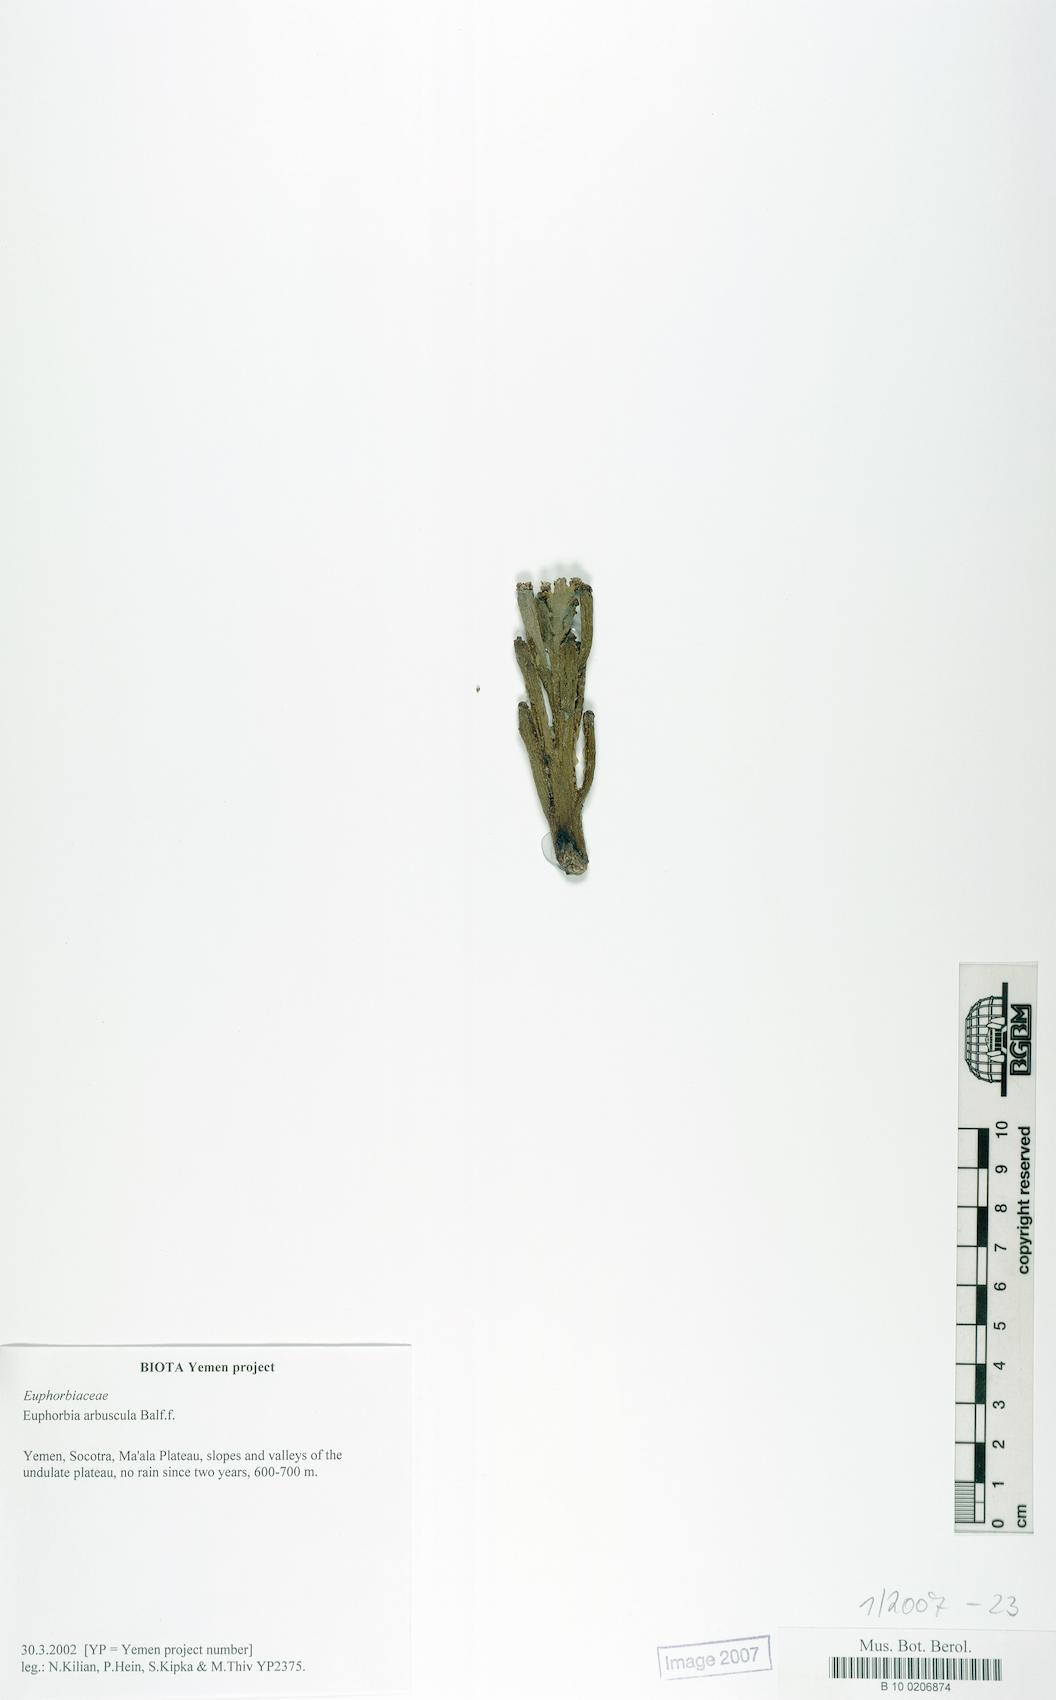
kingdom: Plantae
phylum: Tracheophyta
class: Magnoliopsida
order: Malpighiales
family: Euphorbiaceae
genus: Euphorbia
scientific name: Euphorbia arbuscula
